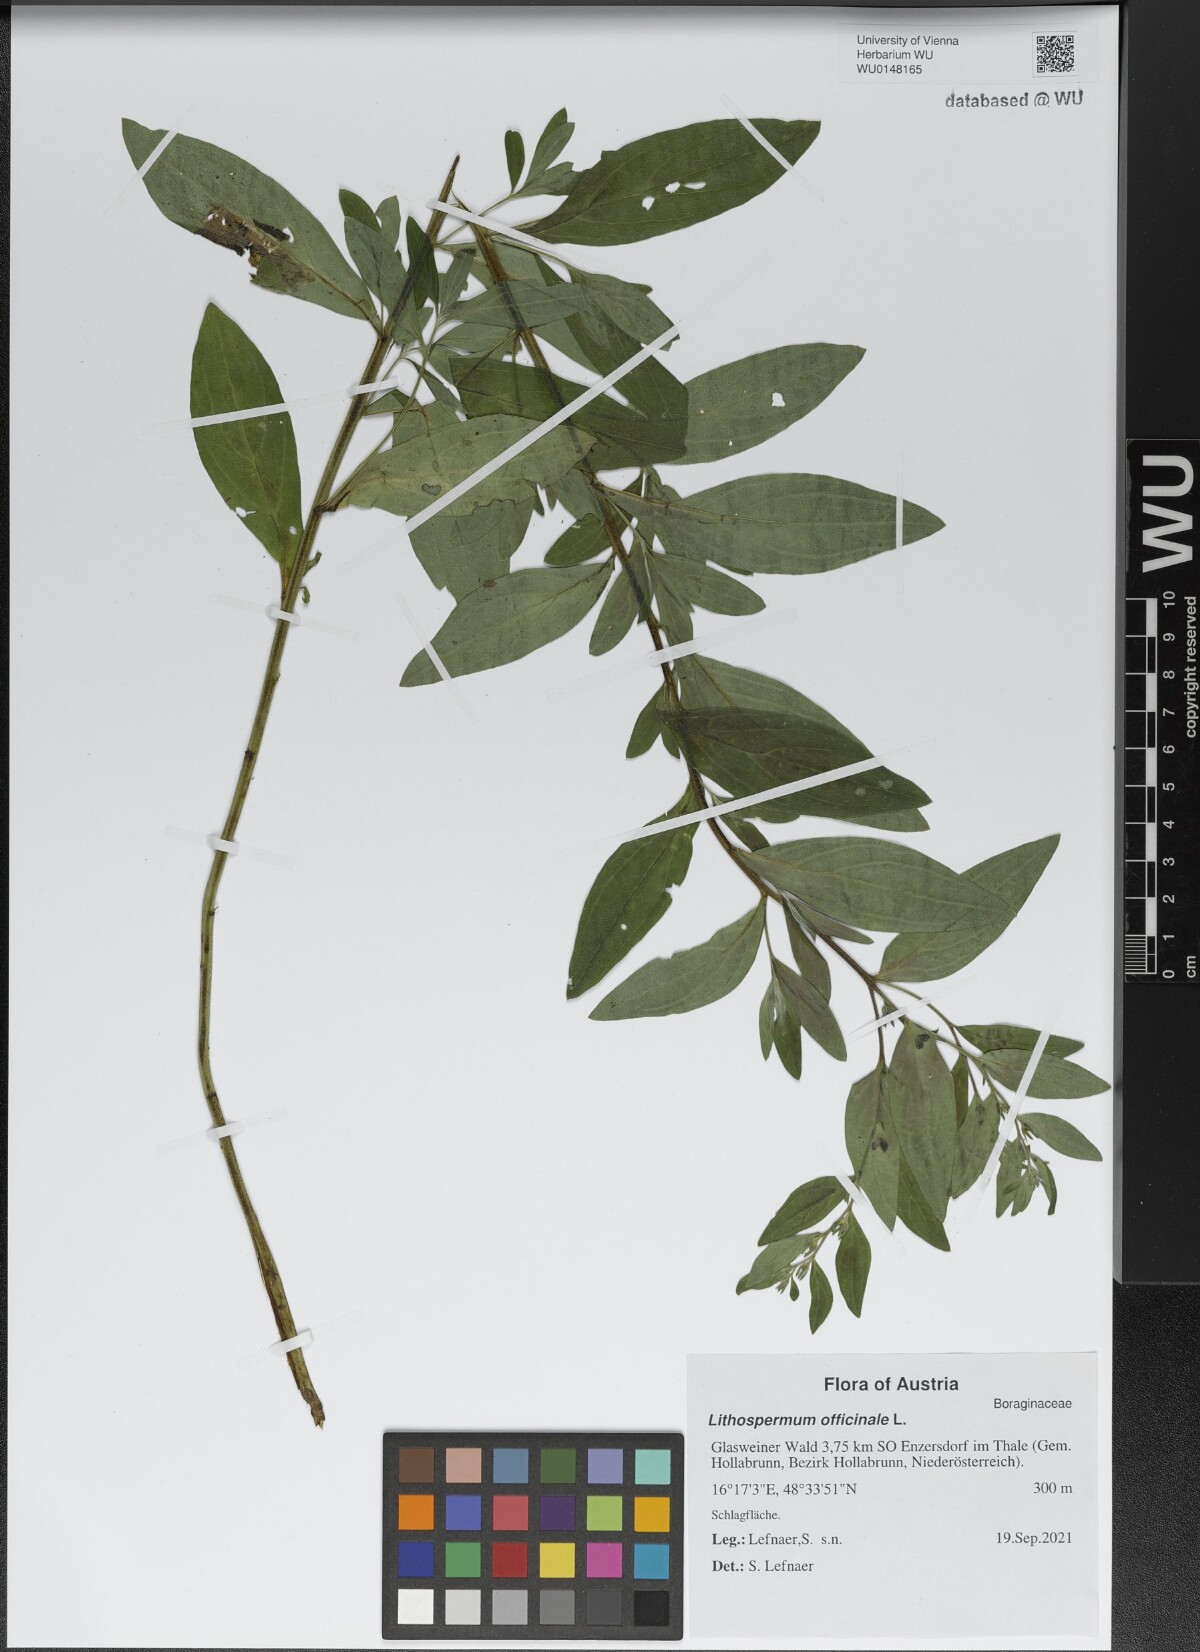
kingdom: Plantae
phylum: Tracheophyta
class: Magnoliopsida
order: Boraginales
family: Boraginaceae
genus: Lithospermum
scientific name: Lithospermum officinale
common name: Common gromwell
